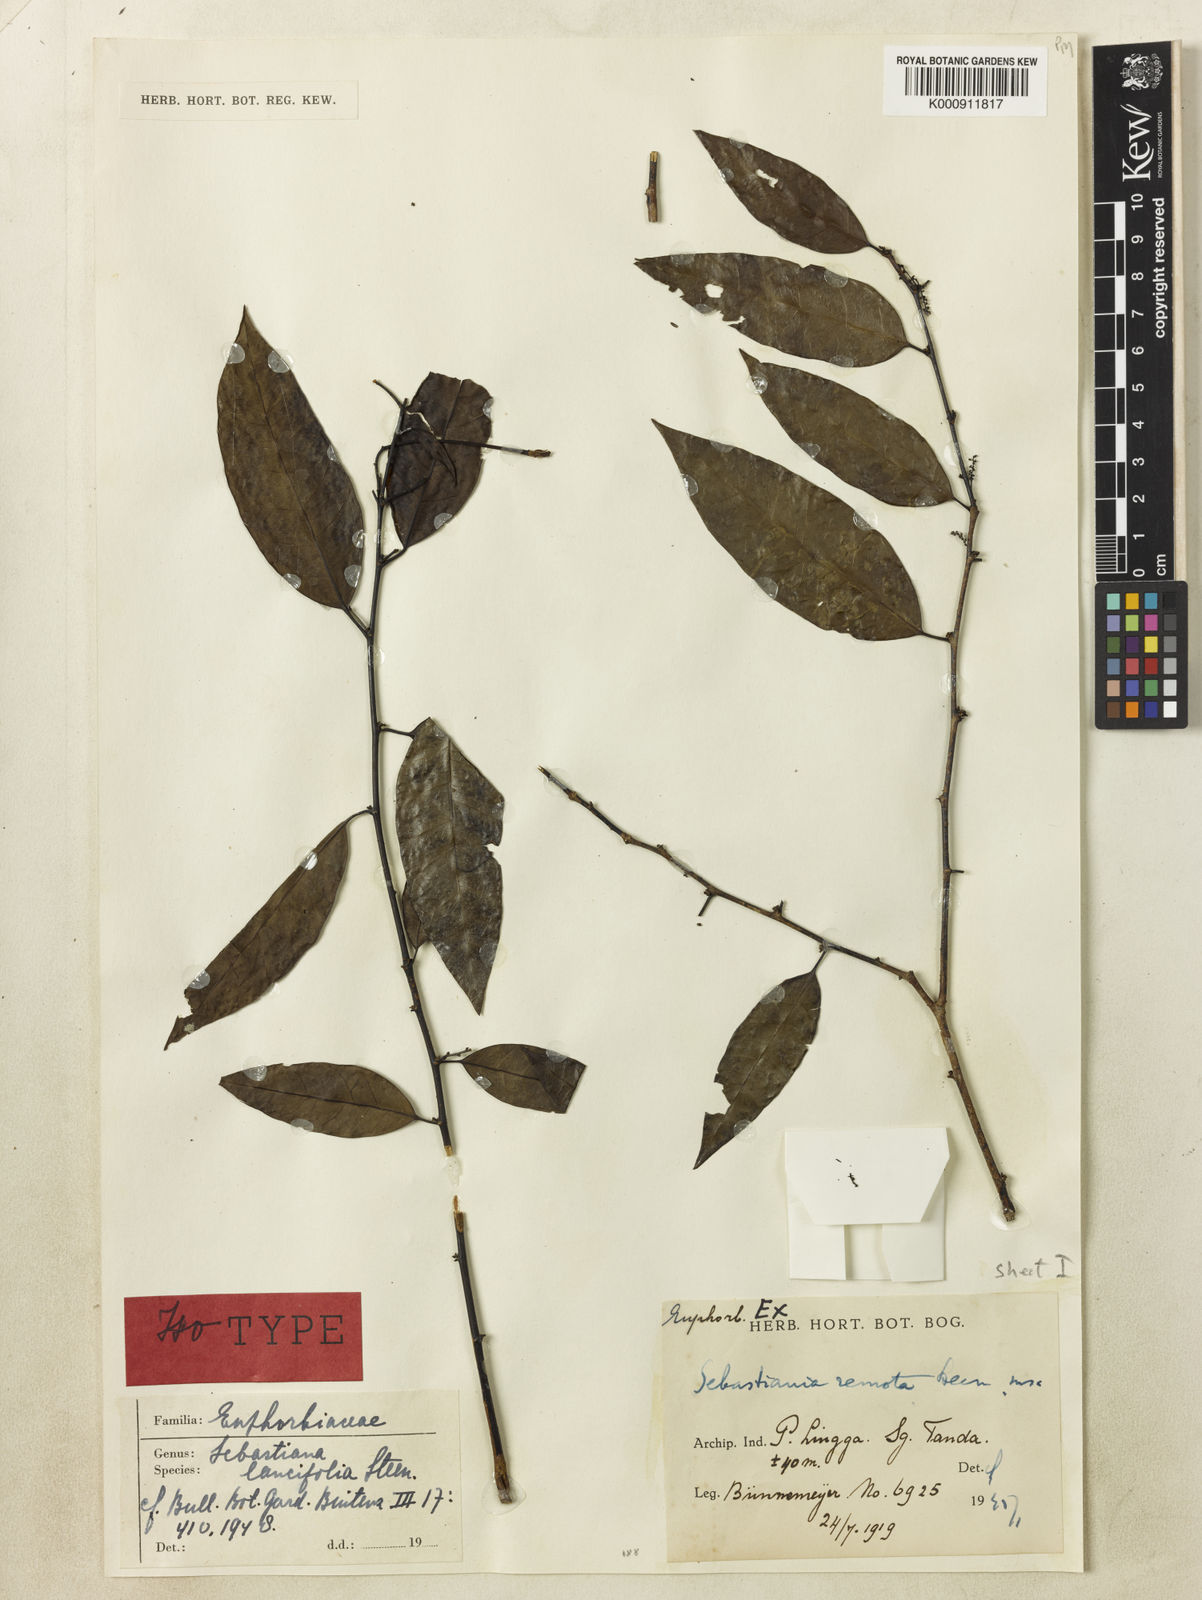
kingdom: Plantae
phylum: Tracheophyta
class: Magnoliopsida
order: Malpighiales
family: Euphorbiaceae
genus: Gymnanthes
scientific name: Gymnanthes borneensis
